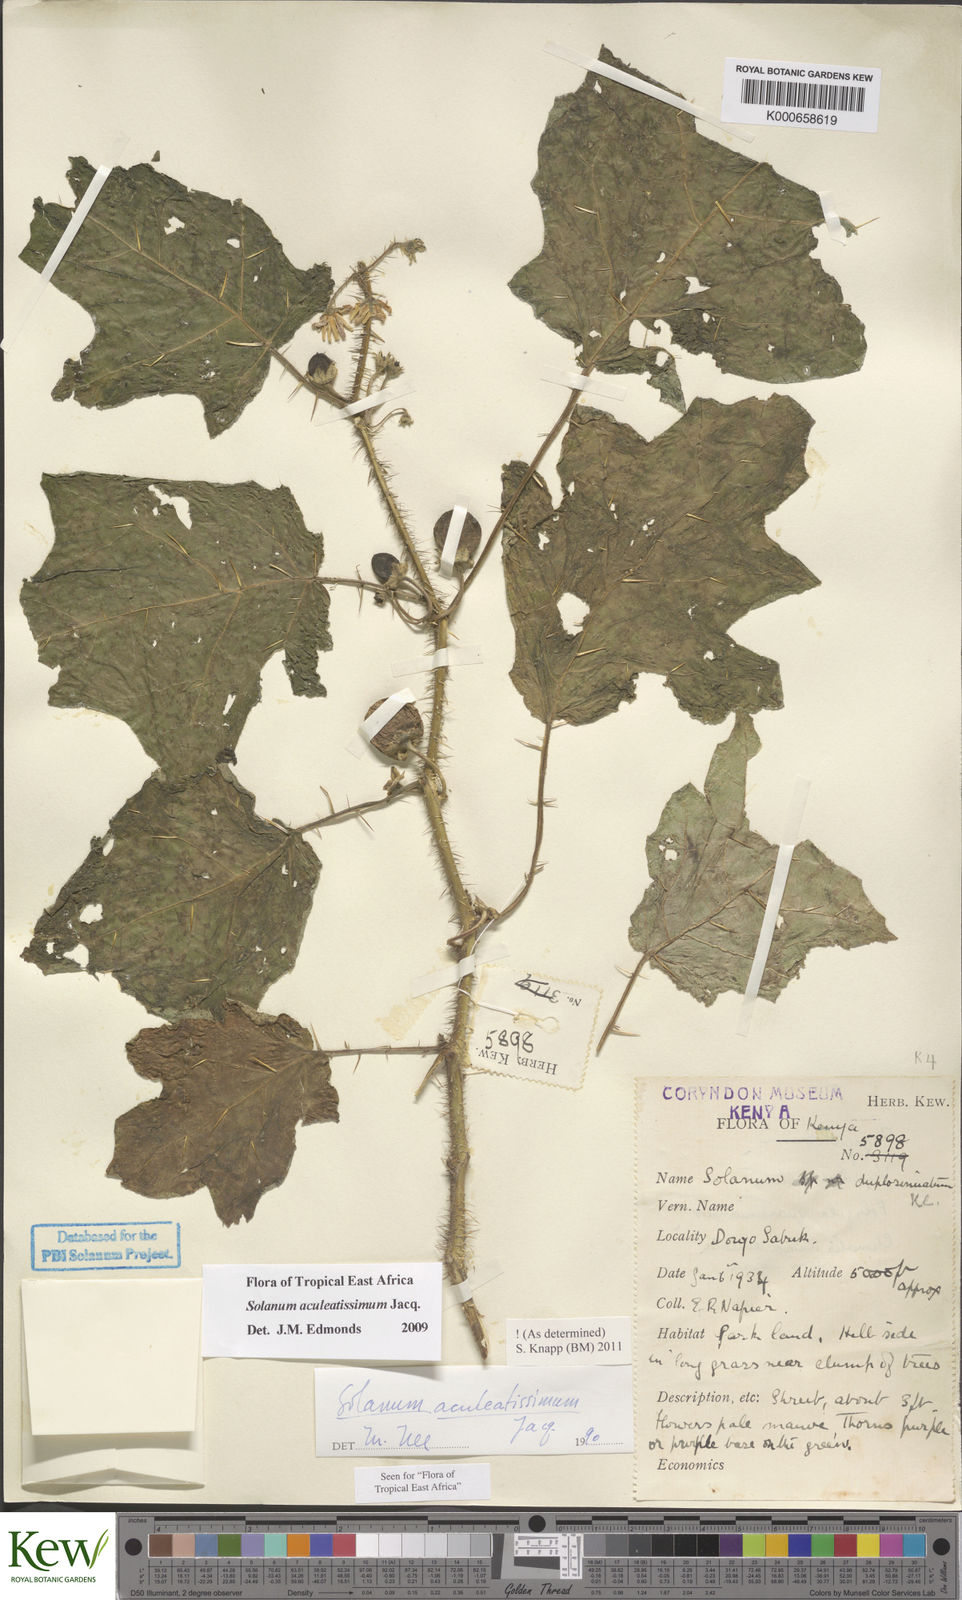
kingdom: Plantae
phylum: Tracheophyta
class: Magnoliopsida
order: Solanales
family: Solanaceae
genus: Solanum
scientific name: Solanum aculeatissimum
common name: Dutch eggplant
